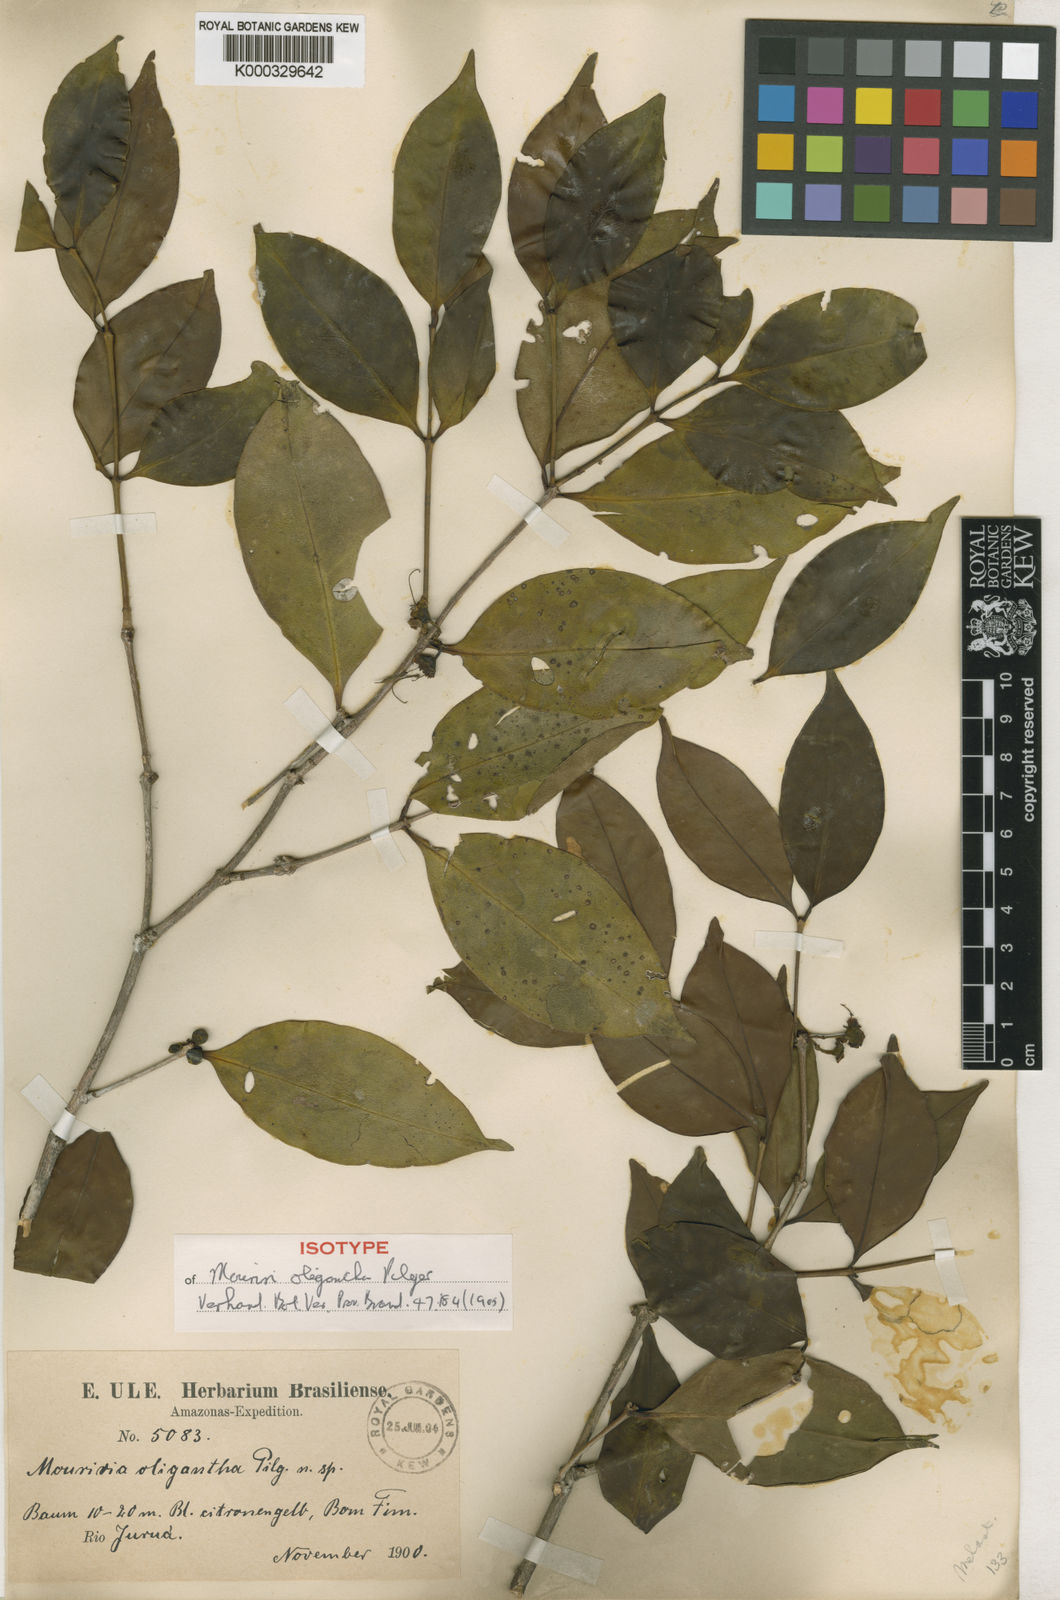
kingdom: Plantae
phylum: Tracheophyta
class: Magnoliopsida
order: Myrtales
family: Melastomataceae
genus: Mouriri
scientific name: Mouriri oligantha
